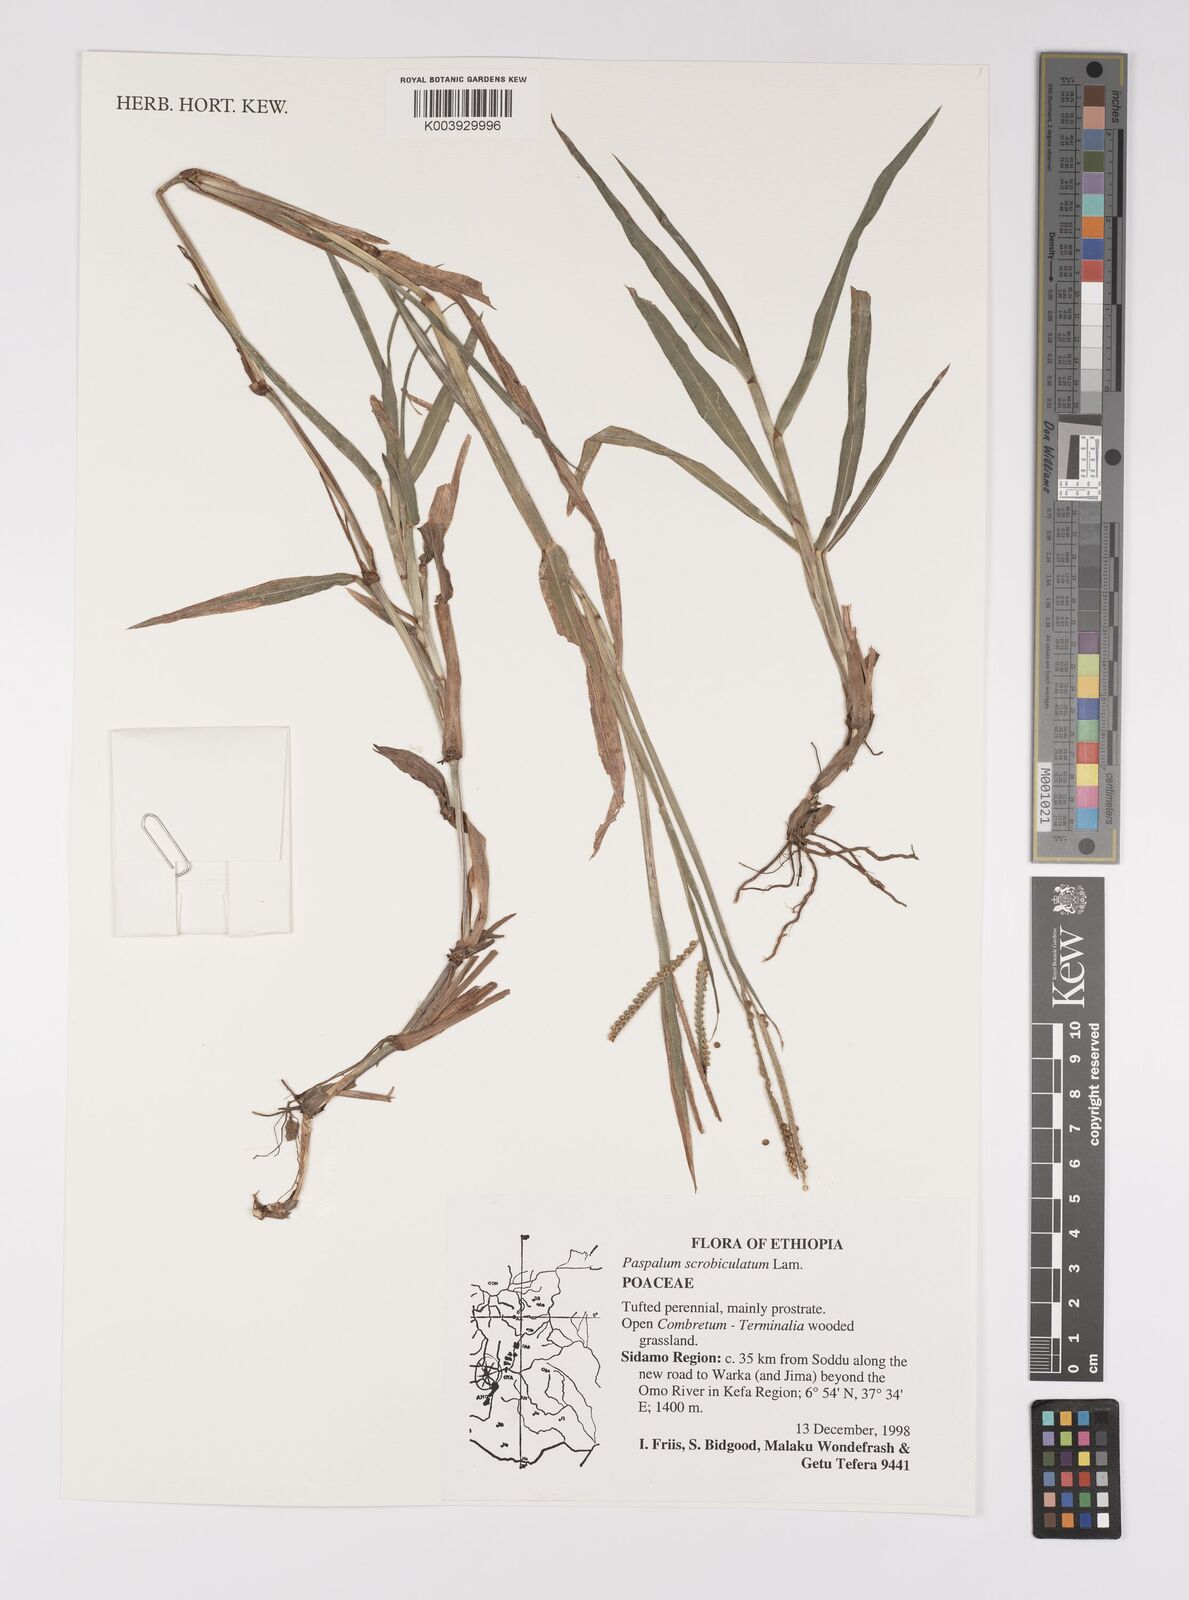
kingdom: Plantae
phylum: Tracheophyta
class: Liliopsida
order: Poales
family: Poaceae
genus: Paspalum
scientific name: Paspalum scrobiculatum
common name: Kodo millet
